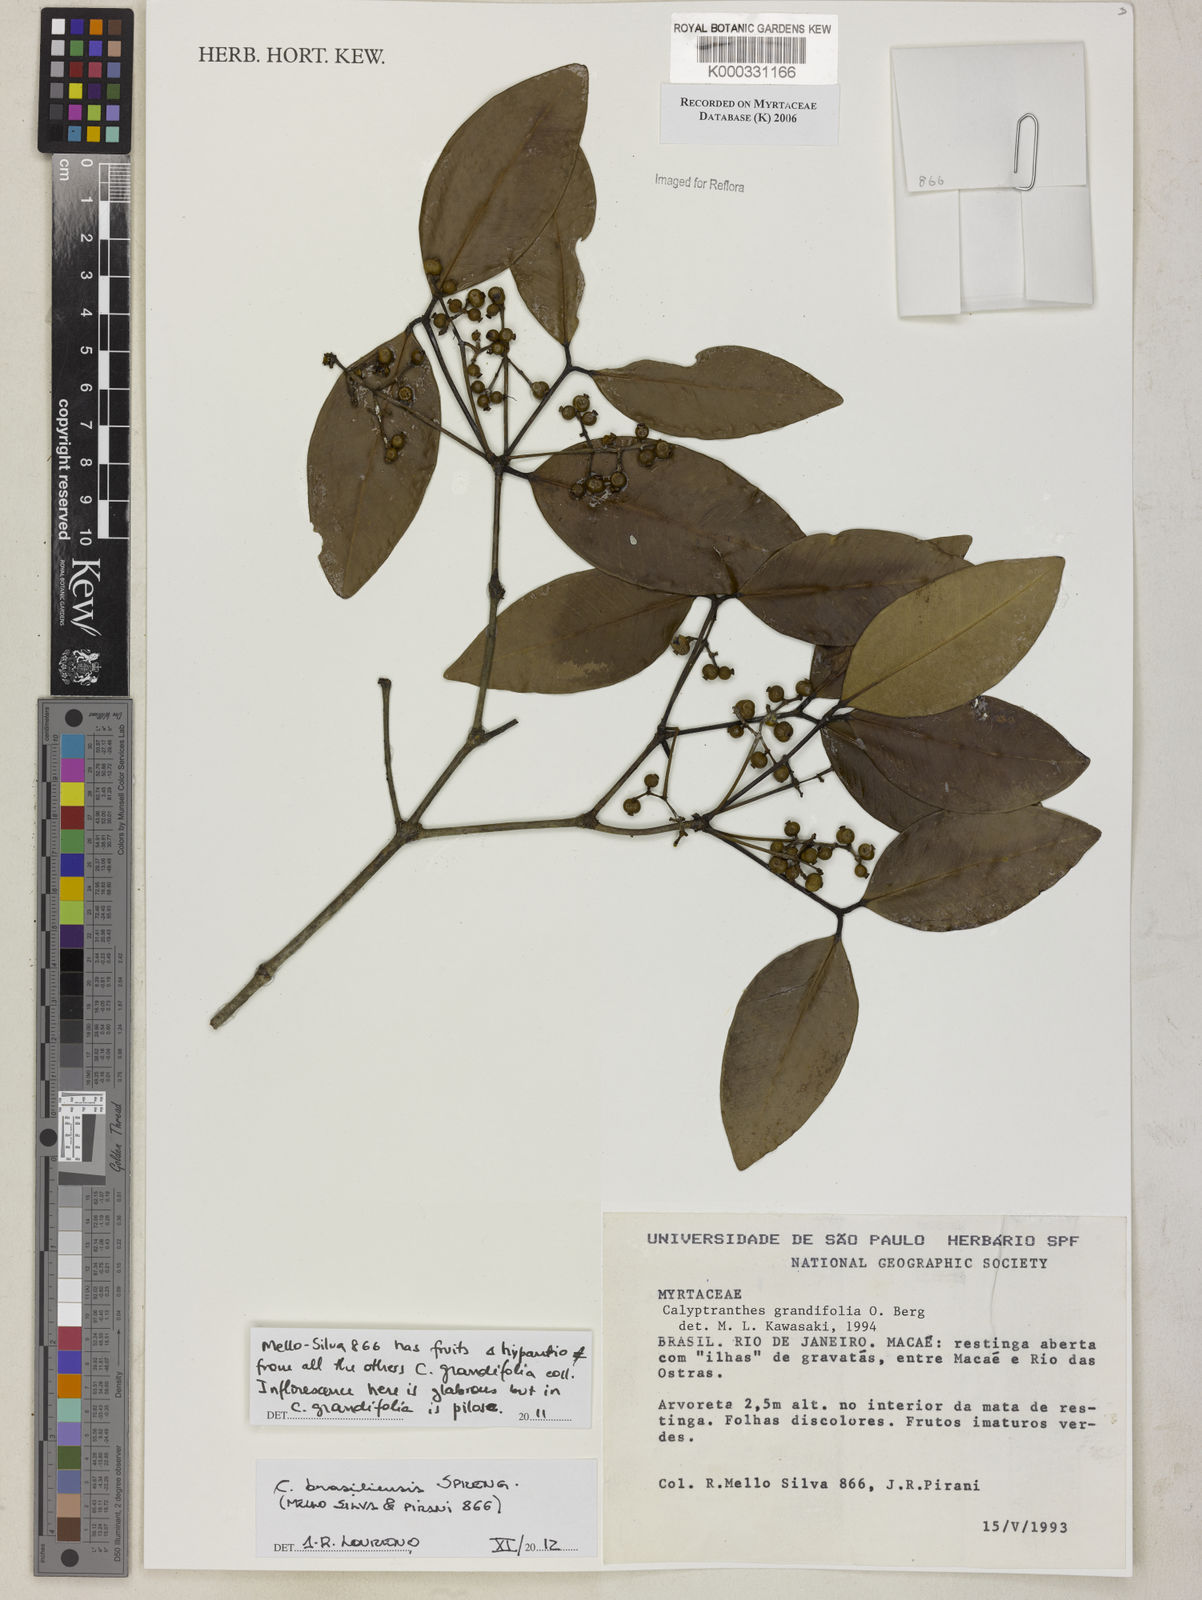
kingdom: Plantae
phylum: Tracheophyta
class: Magnoliopsida
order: Myrtales
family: Myrtaceae
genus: Calyptranthes
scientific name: Calyptranthes grandifolia
